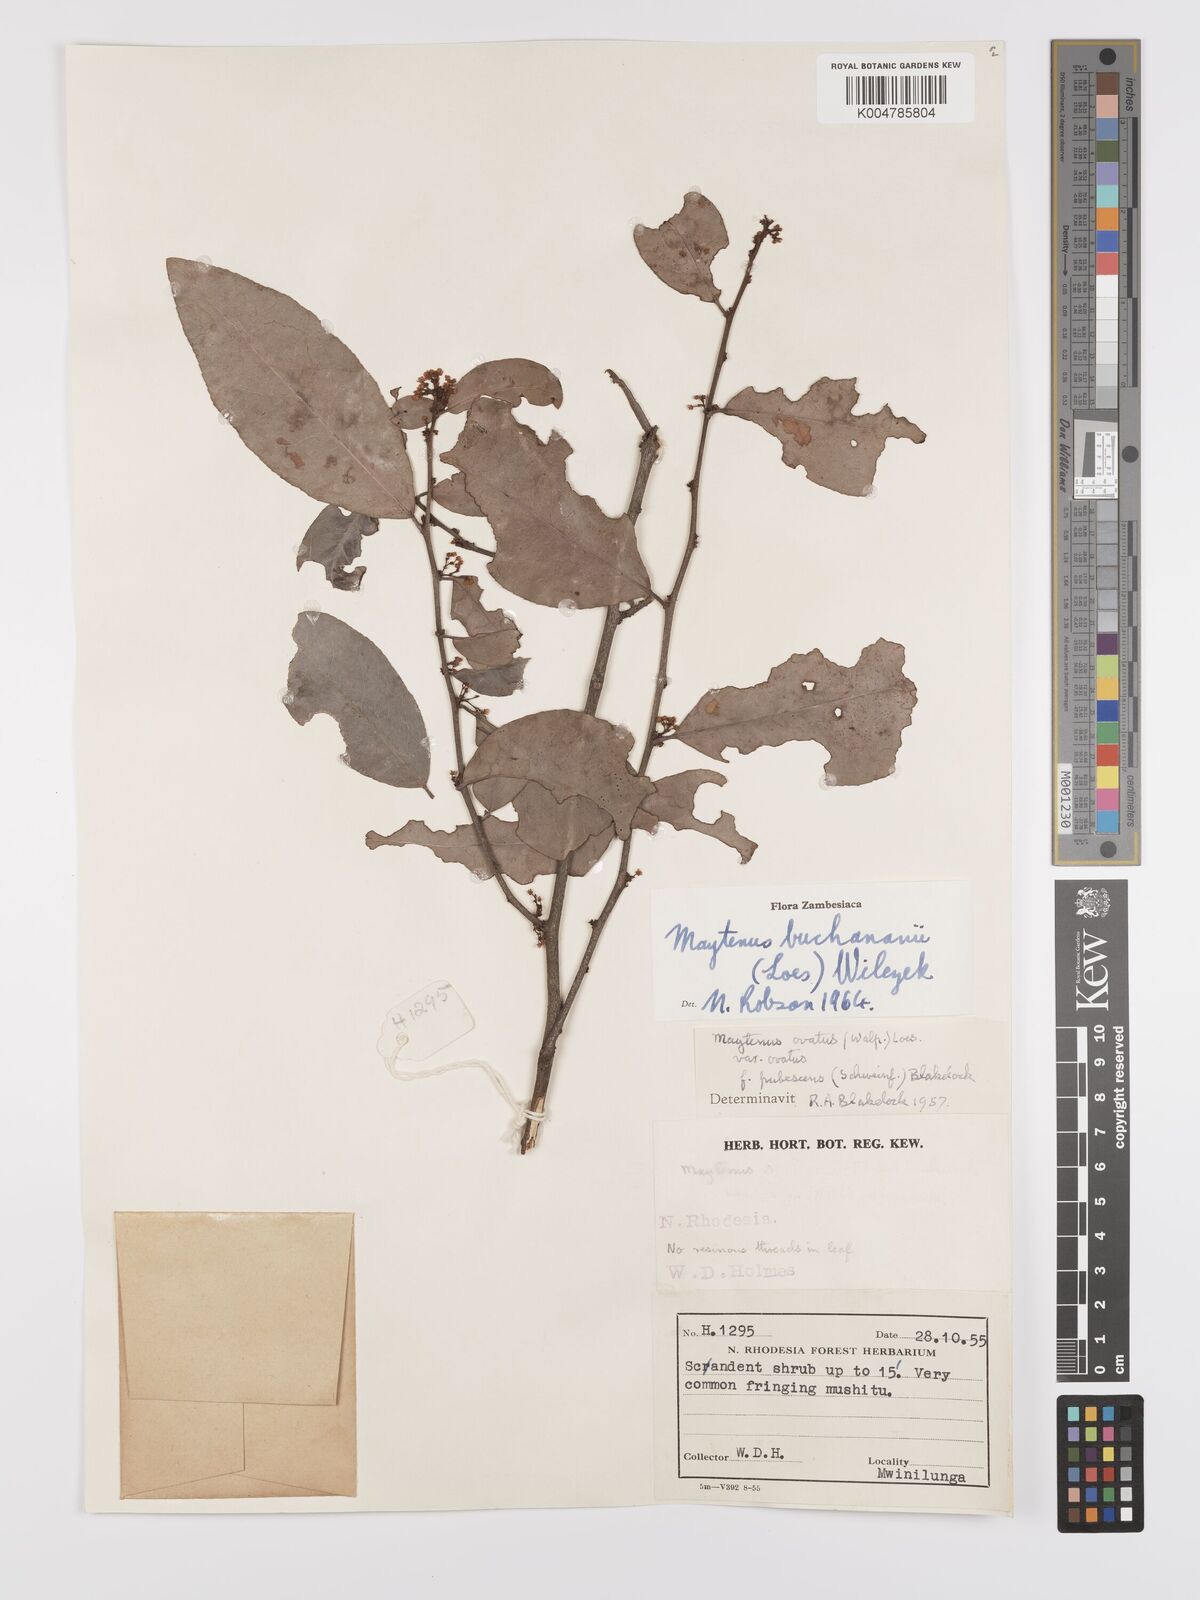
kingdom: Plantae
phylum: Tracheophyta
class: Magnoliopsida
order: Celastrales
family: Celastraceae
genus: Gymnosporia
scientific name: Gymnosporia buchananii
